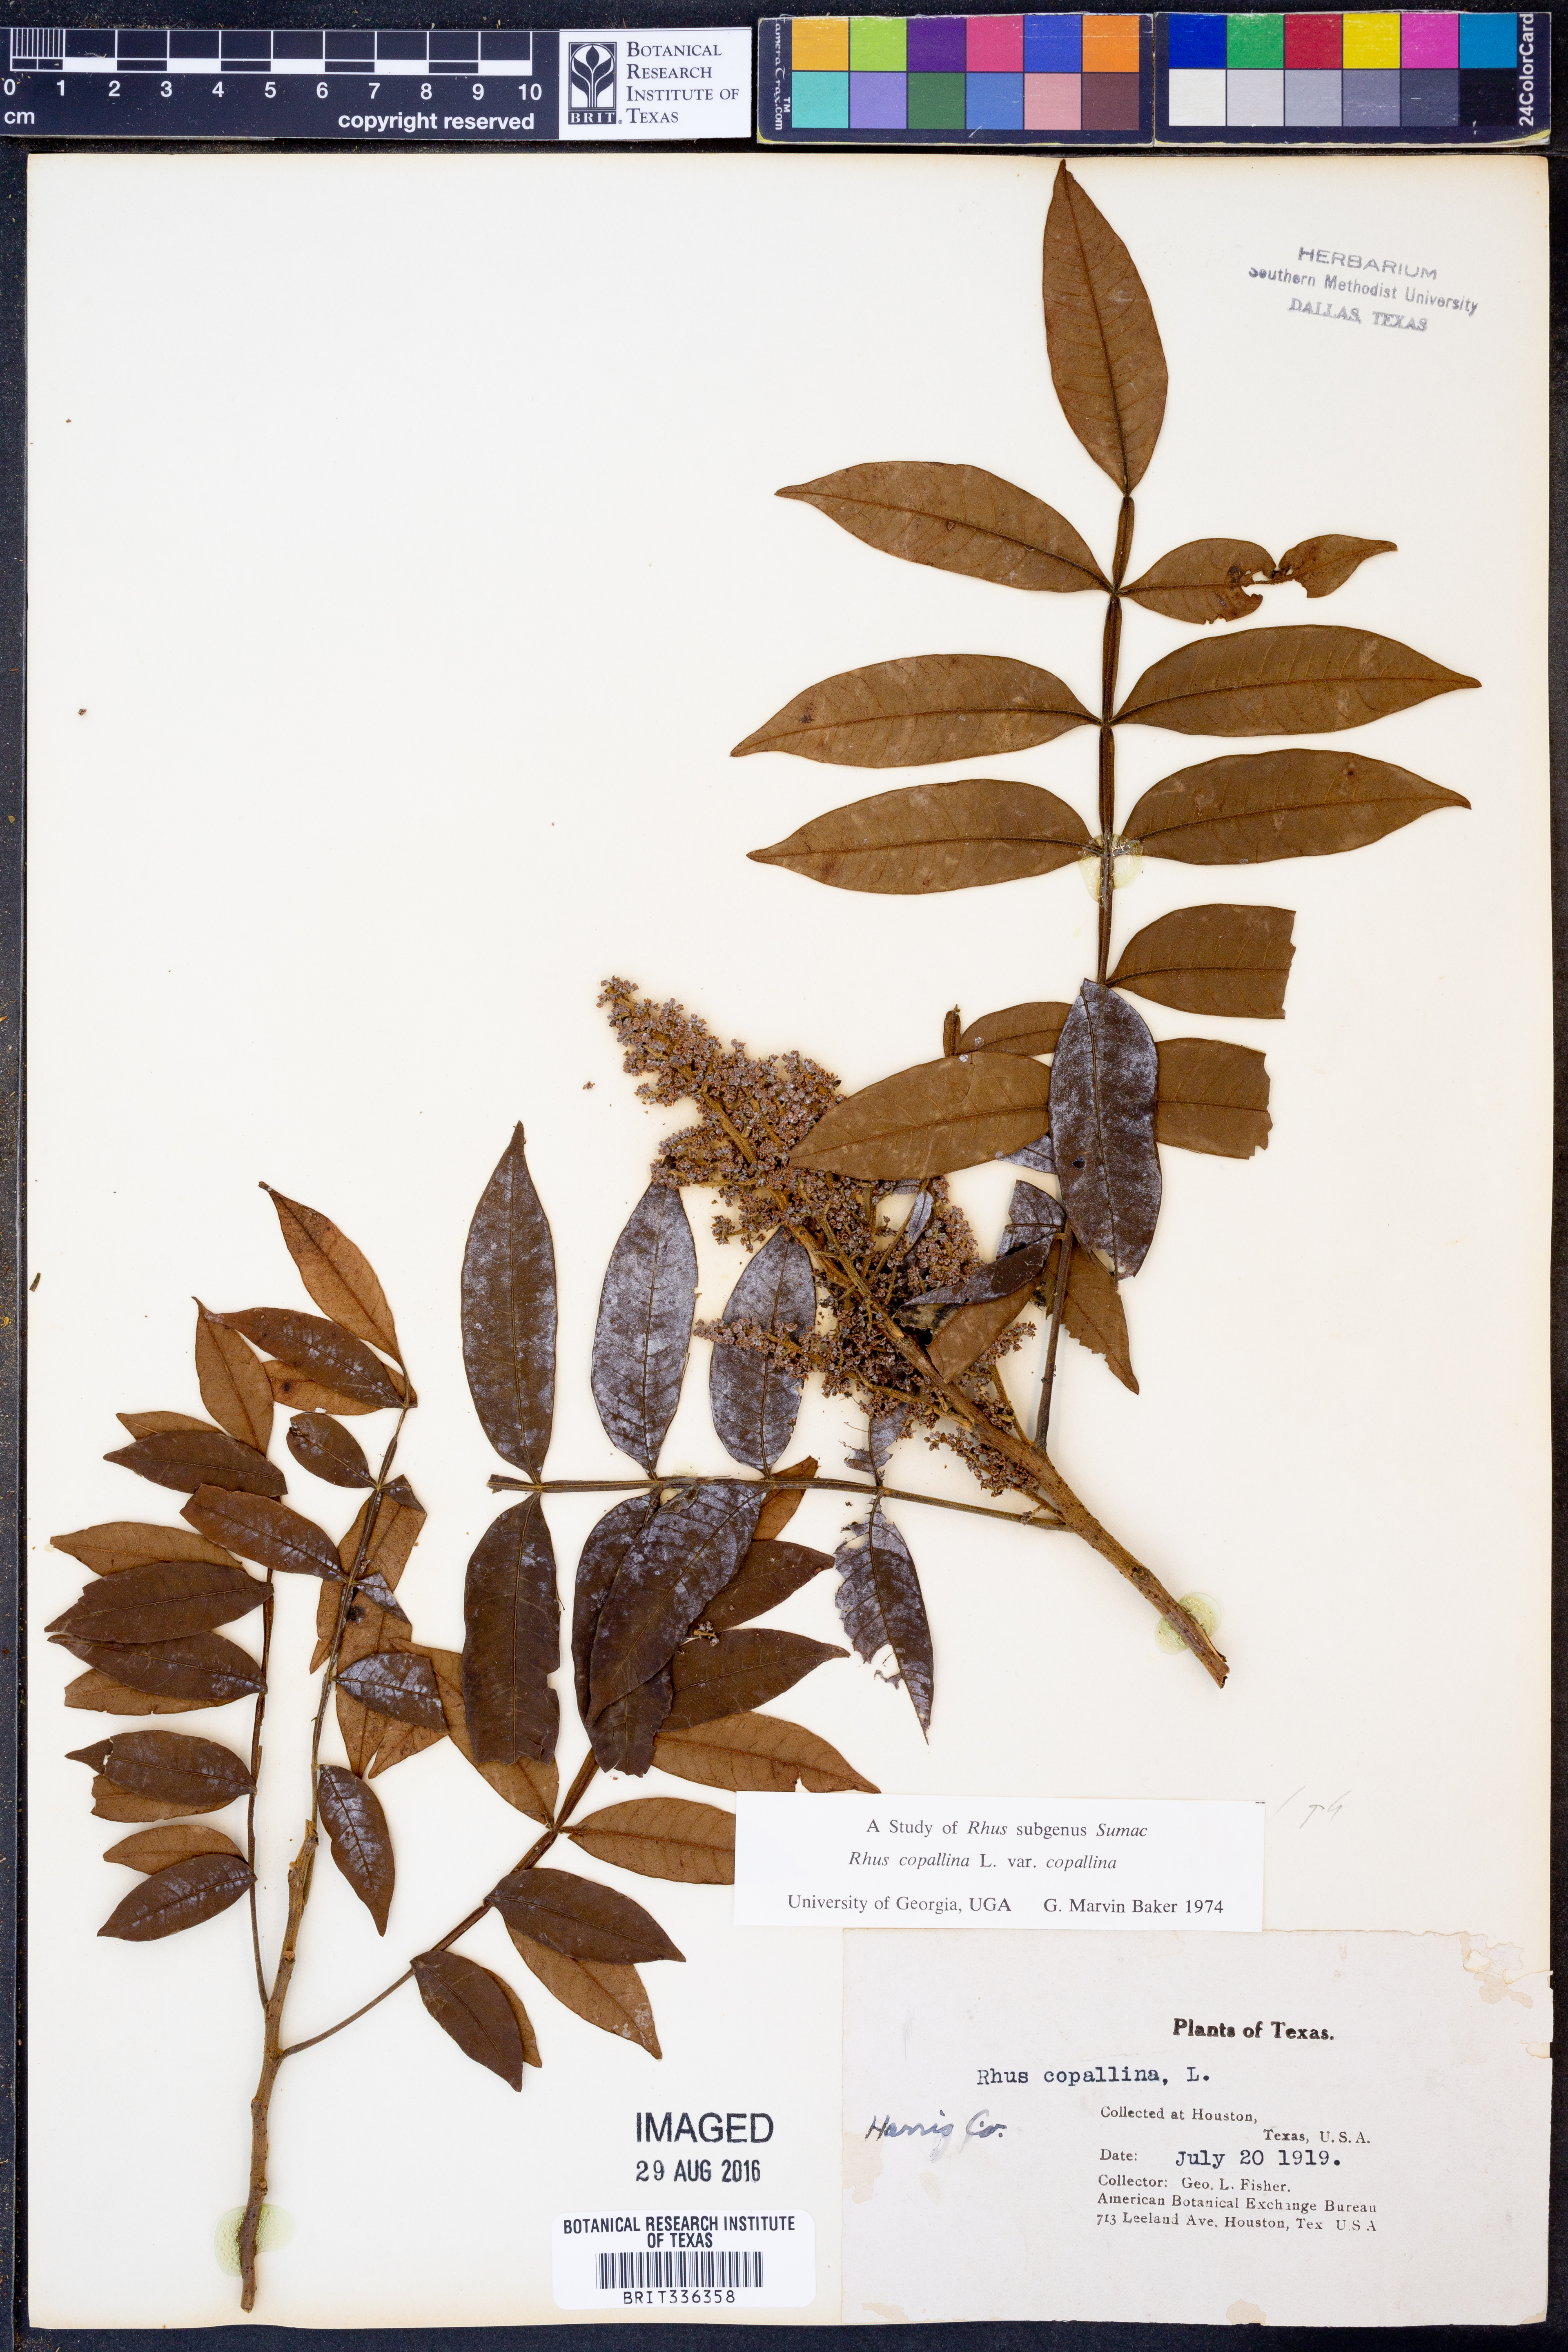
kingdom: Plantae
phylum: Tracheophyta
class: Magnoliopsida
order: Sapindales
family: Anacardiaceae
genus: Rhus
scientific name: Rhus copallina
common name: Shining sumac
